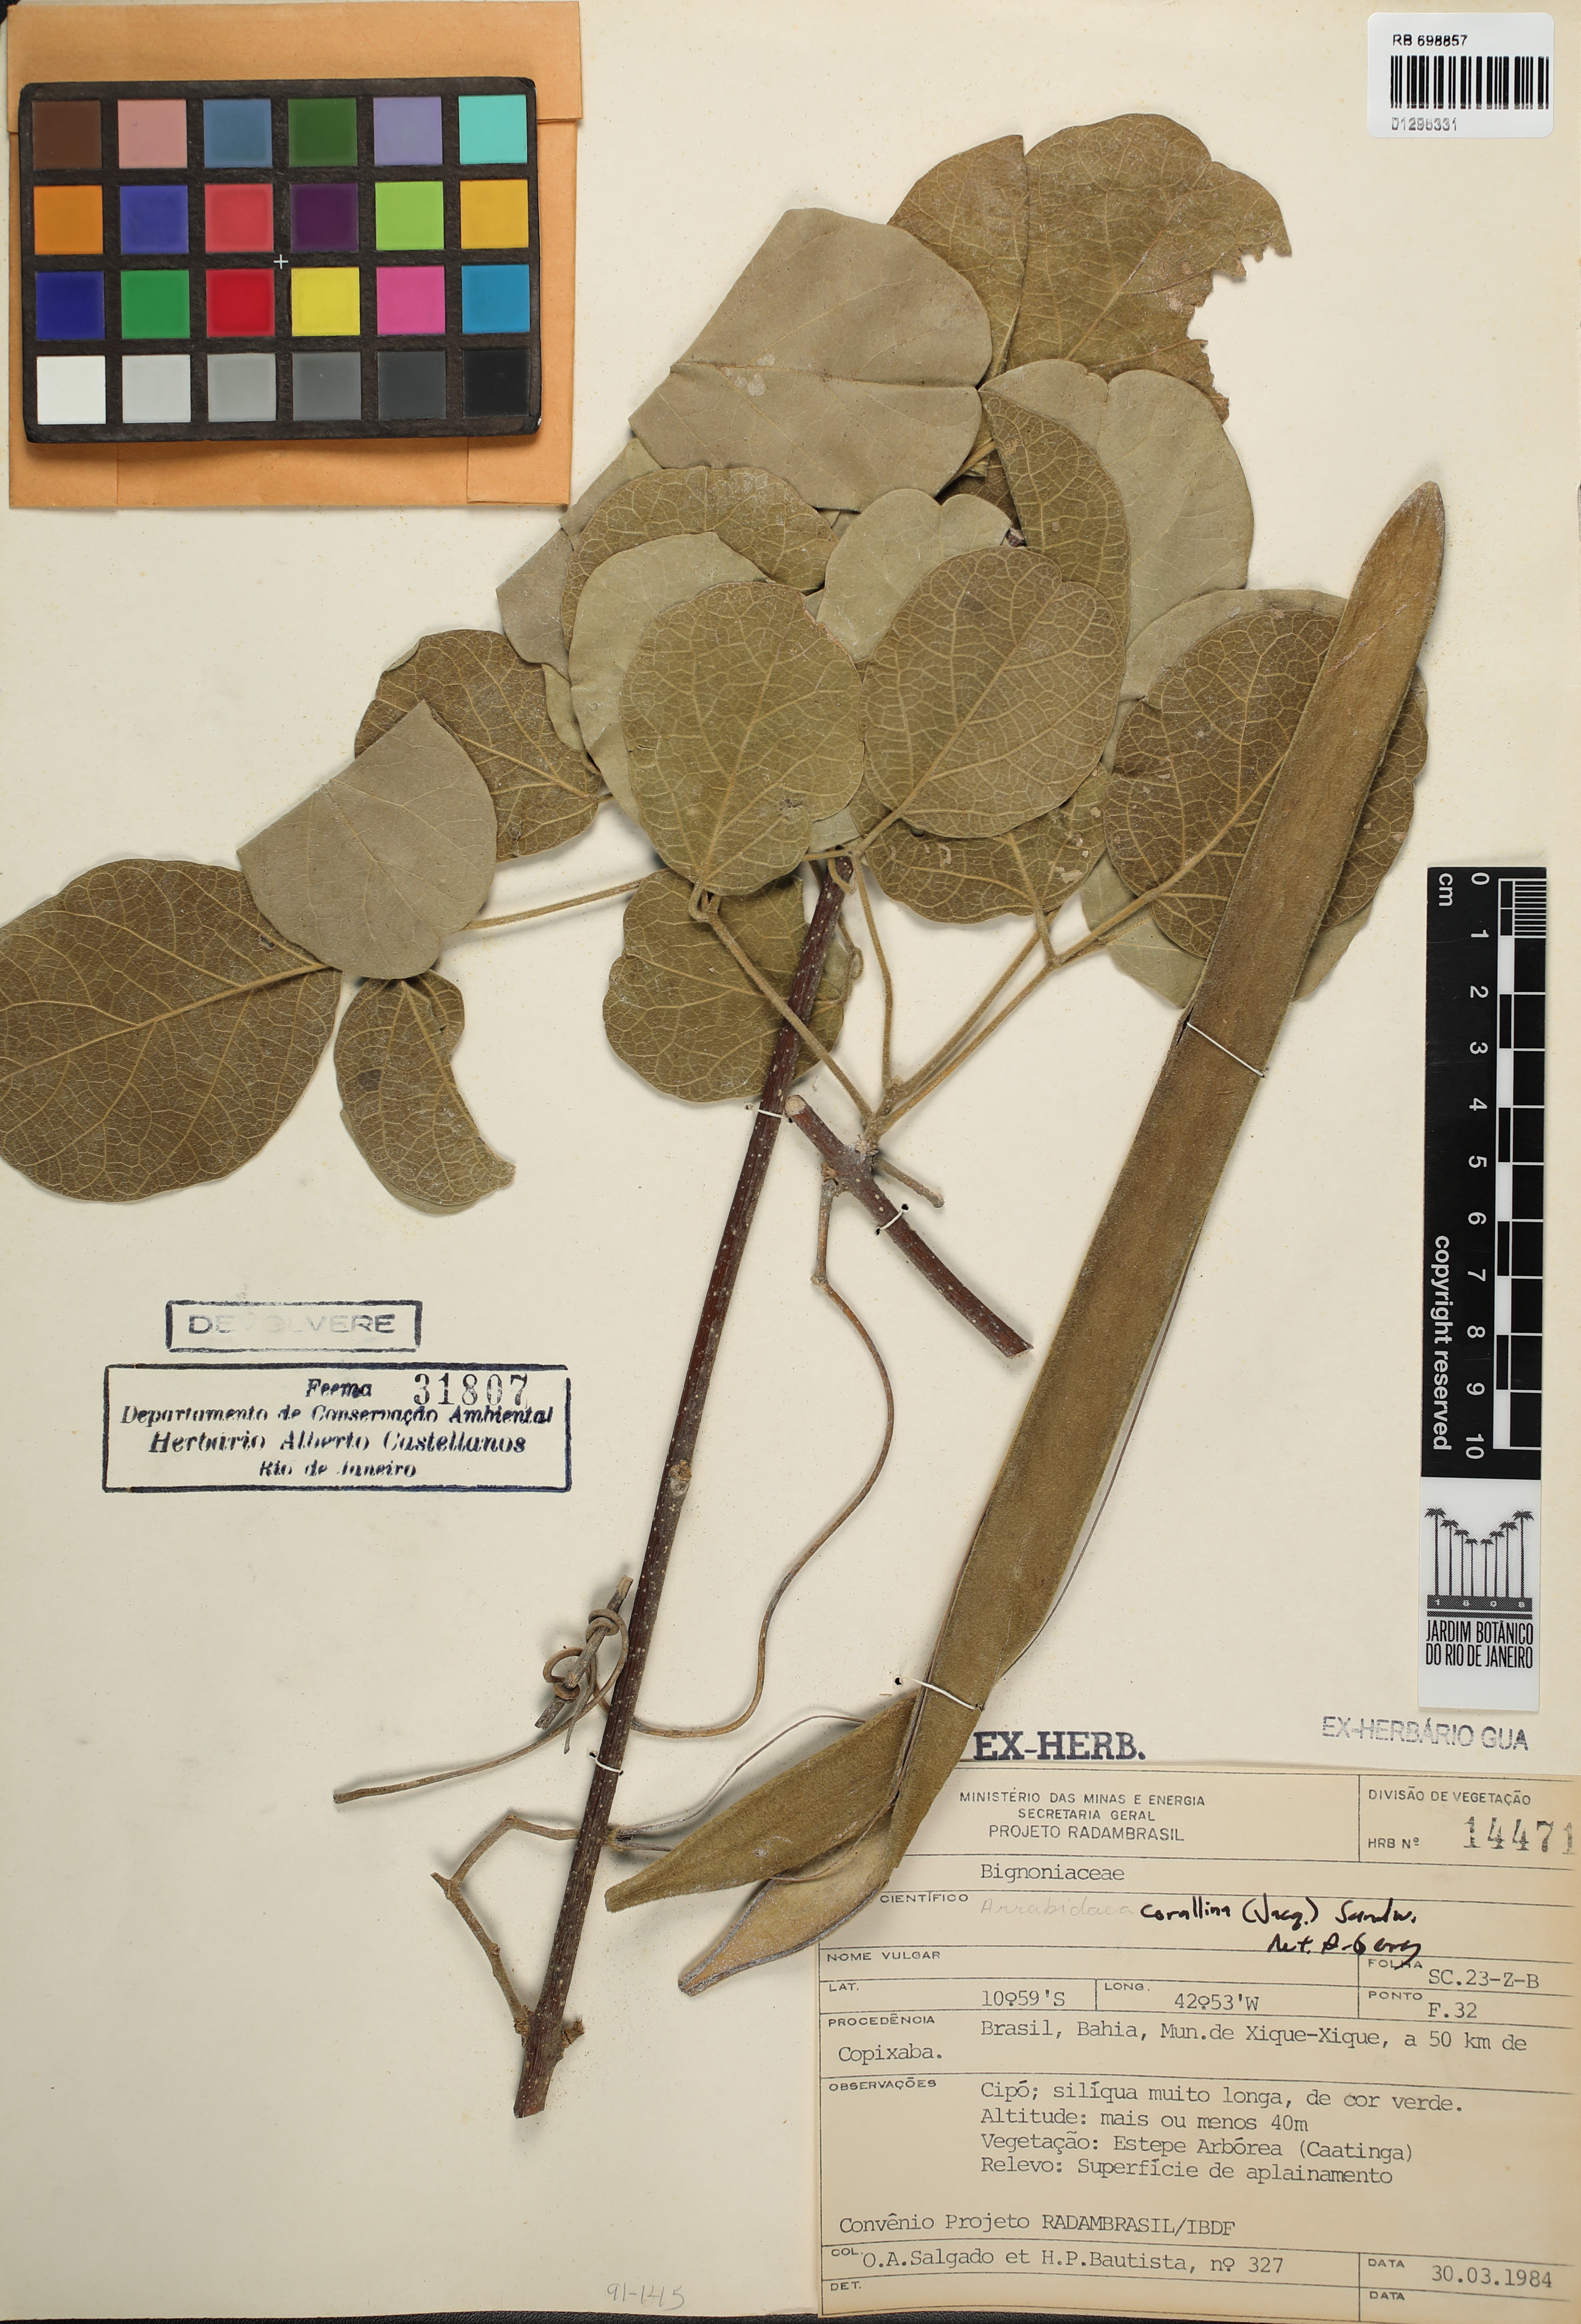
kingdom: Plantae
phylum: Tracheophyta
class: Magnoliopsida
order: Lamiales
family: Bignoniaceae
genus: Tanaecium
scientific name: Tanaecium dichotomum
